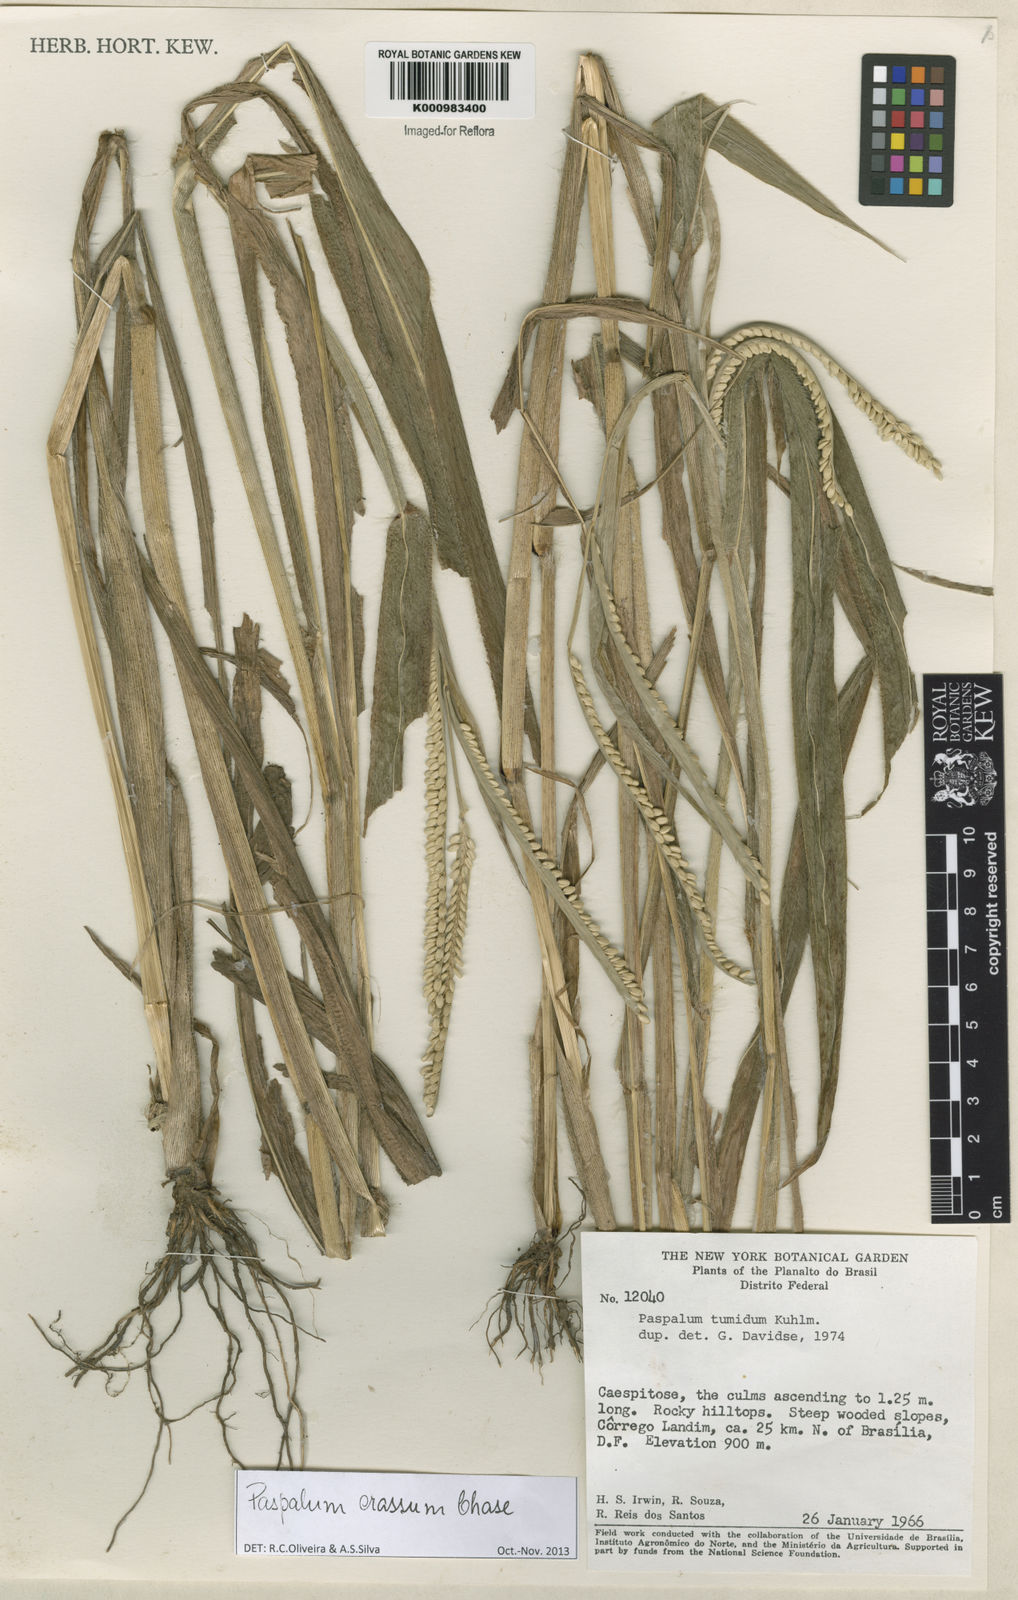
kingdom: Plantae
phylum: Tracheophyta
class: Liliopsida
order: Poales
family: Poaceae
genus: Paspalum
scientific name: Paspalum crassum
